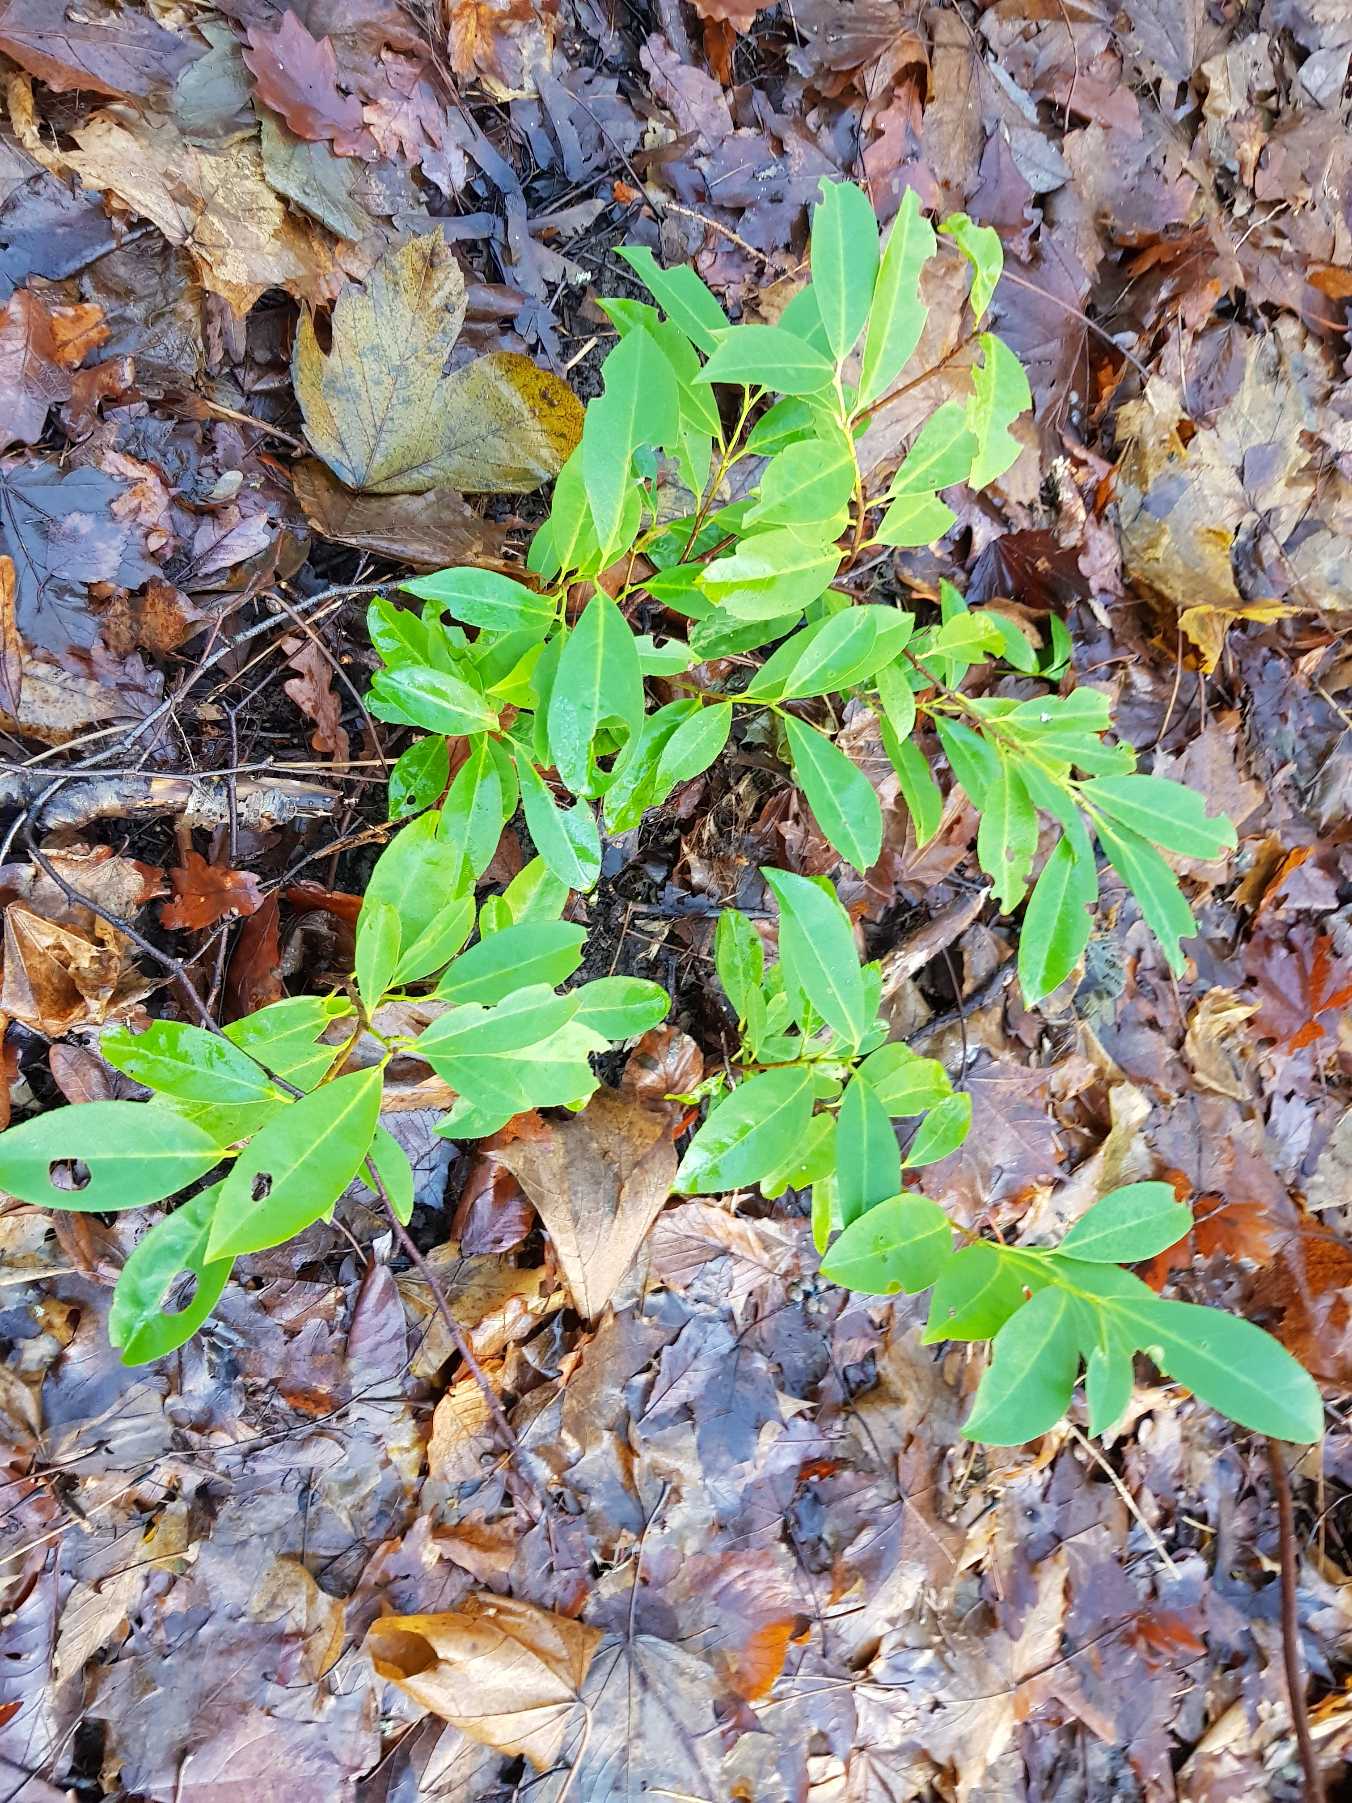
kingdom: Plantae
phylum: Tracheophyta
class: Magnoliopsida
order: Rosales
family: Rosaceae
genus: Prunus
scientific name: Prunus laurocerasus
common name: Laurbærkirsebær
